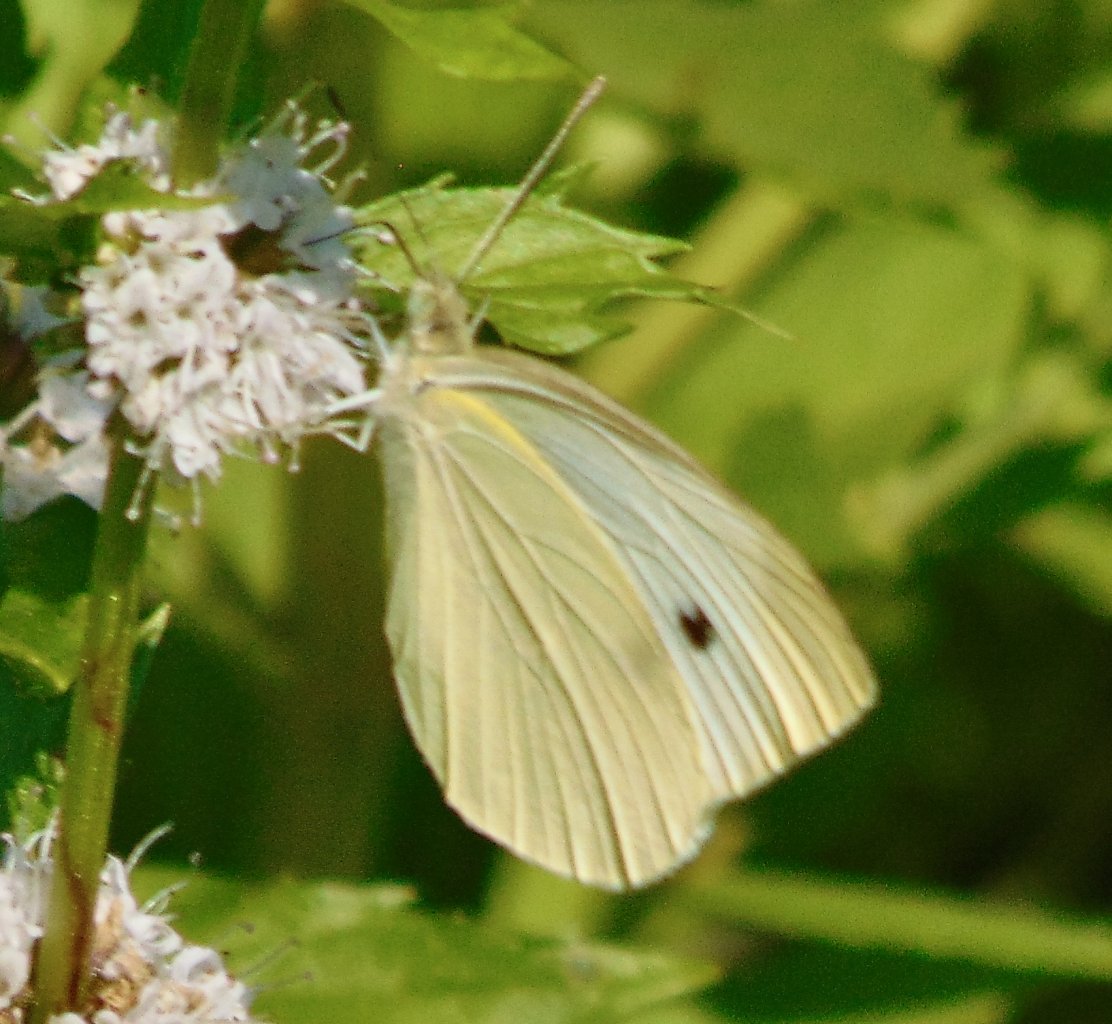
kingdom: Animalia
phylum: Arthropoda
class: Insecta
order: Lepidoptera
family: Pieridae
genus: Pieris
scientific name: Pieris rapae
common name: Cabbage White
